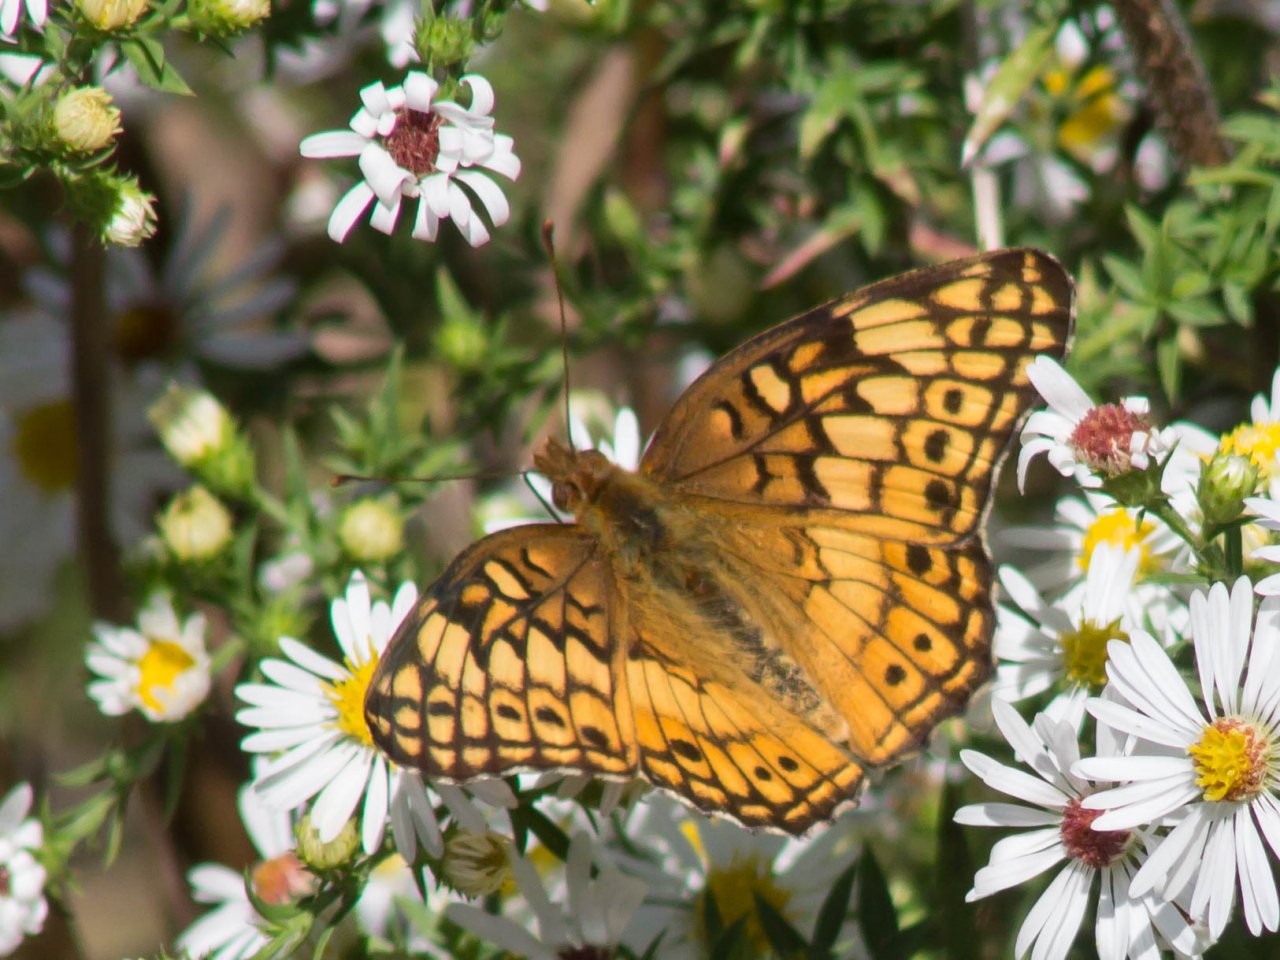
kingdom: Animalia
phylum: Arthropoda
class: Insecta
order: Lepidoptera
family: Nymphalidae
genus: Euptoieta
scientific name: Euptoieta claudia
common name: Variegated Fritillary
